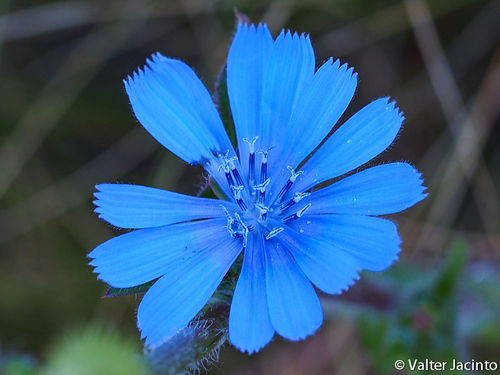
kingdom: Plantae
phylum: Tracheophyta
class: Magnoliopsida
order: Asterales
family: Asteraceae
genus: Cichorium
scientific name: Cichorium intybus
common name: Chicory
